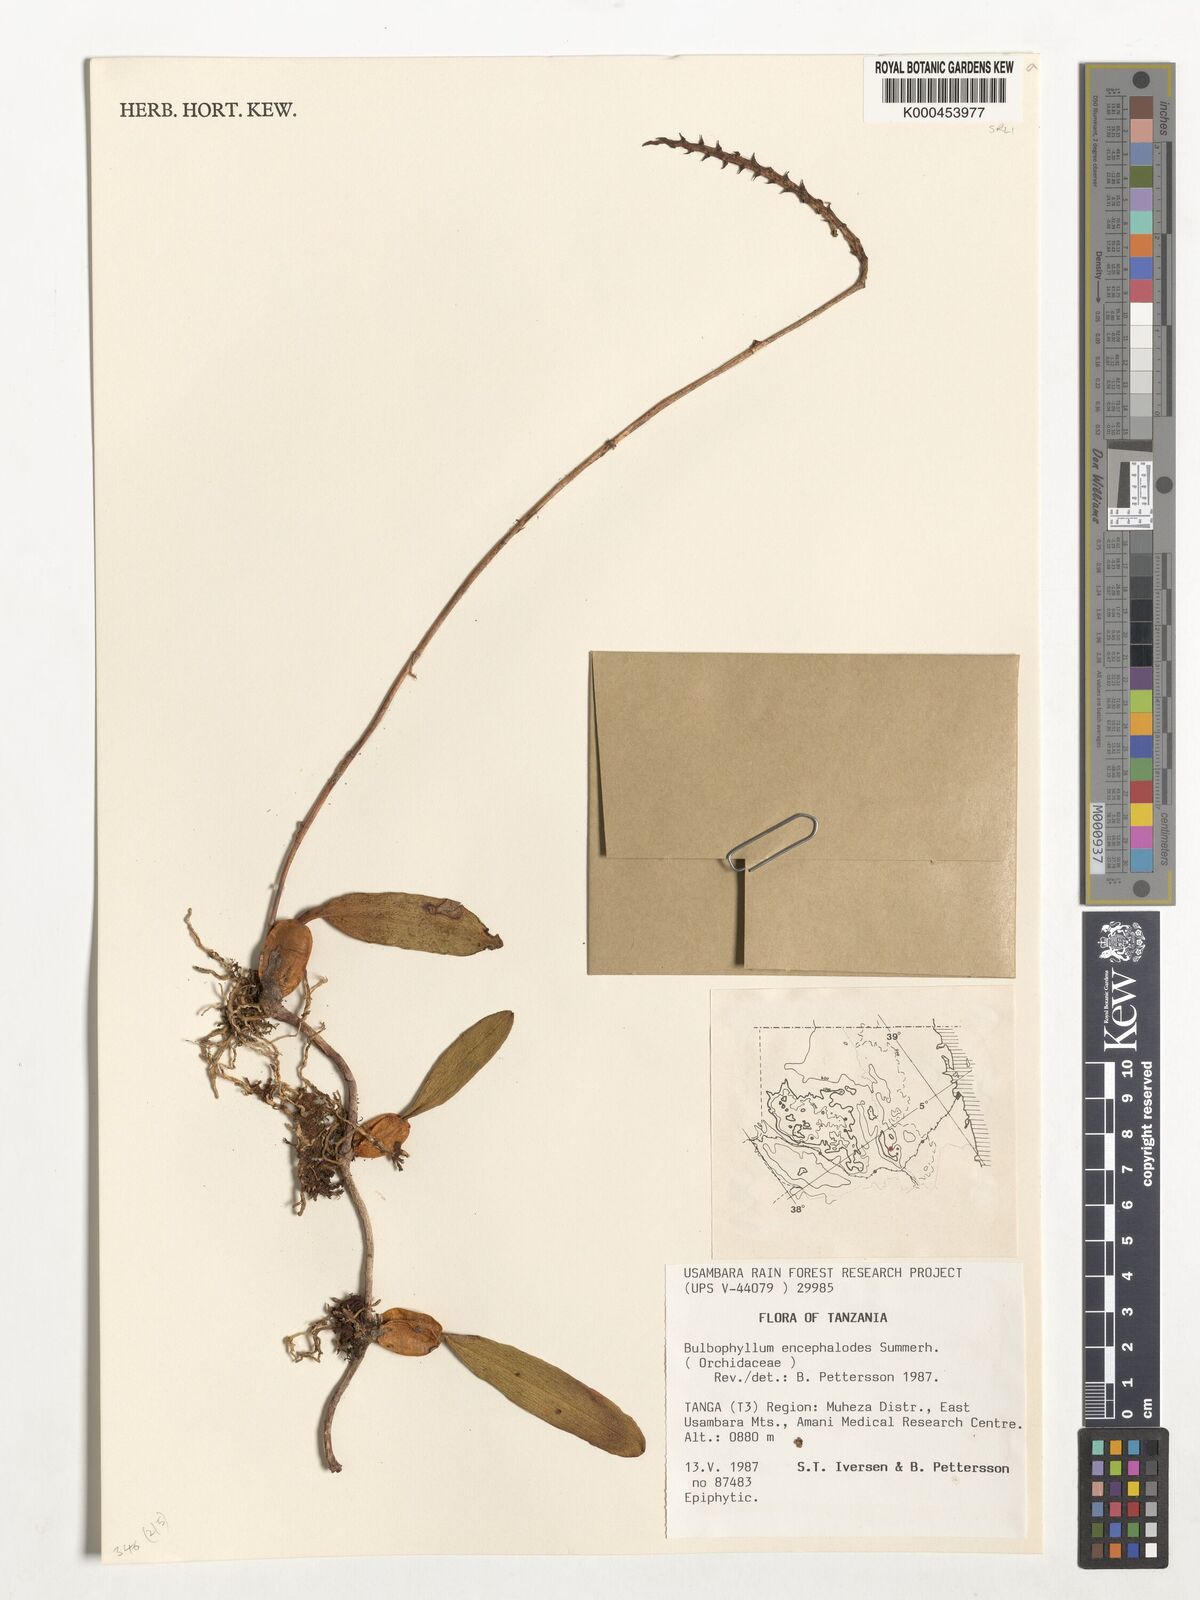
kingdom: Plantae
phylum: Tracheophyta
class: Liliopsida
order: Asparagales
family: Orchidaceae
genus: Bulbophyllum
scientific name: Bulbophyllum encephalodes
